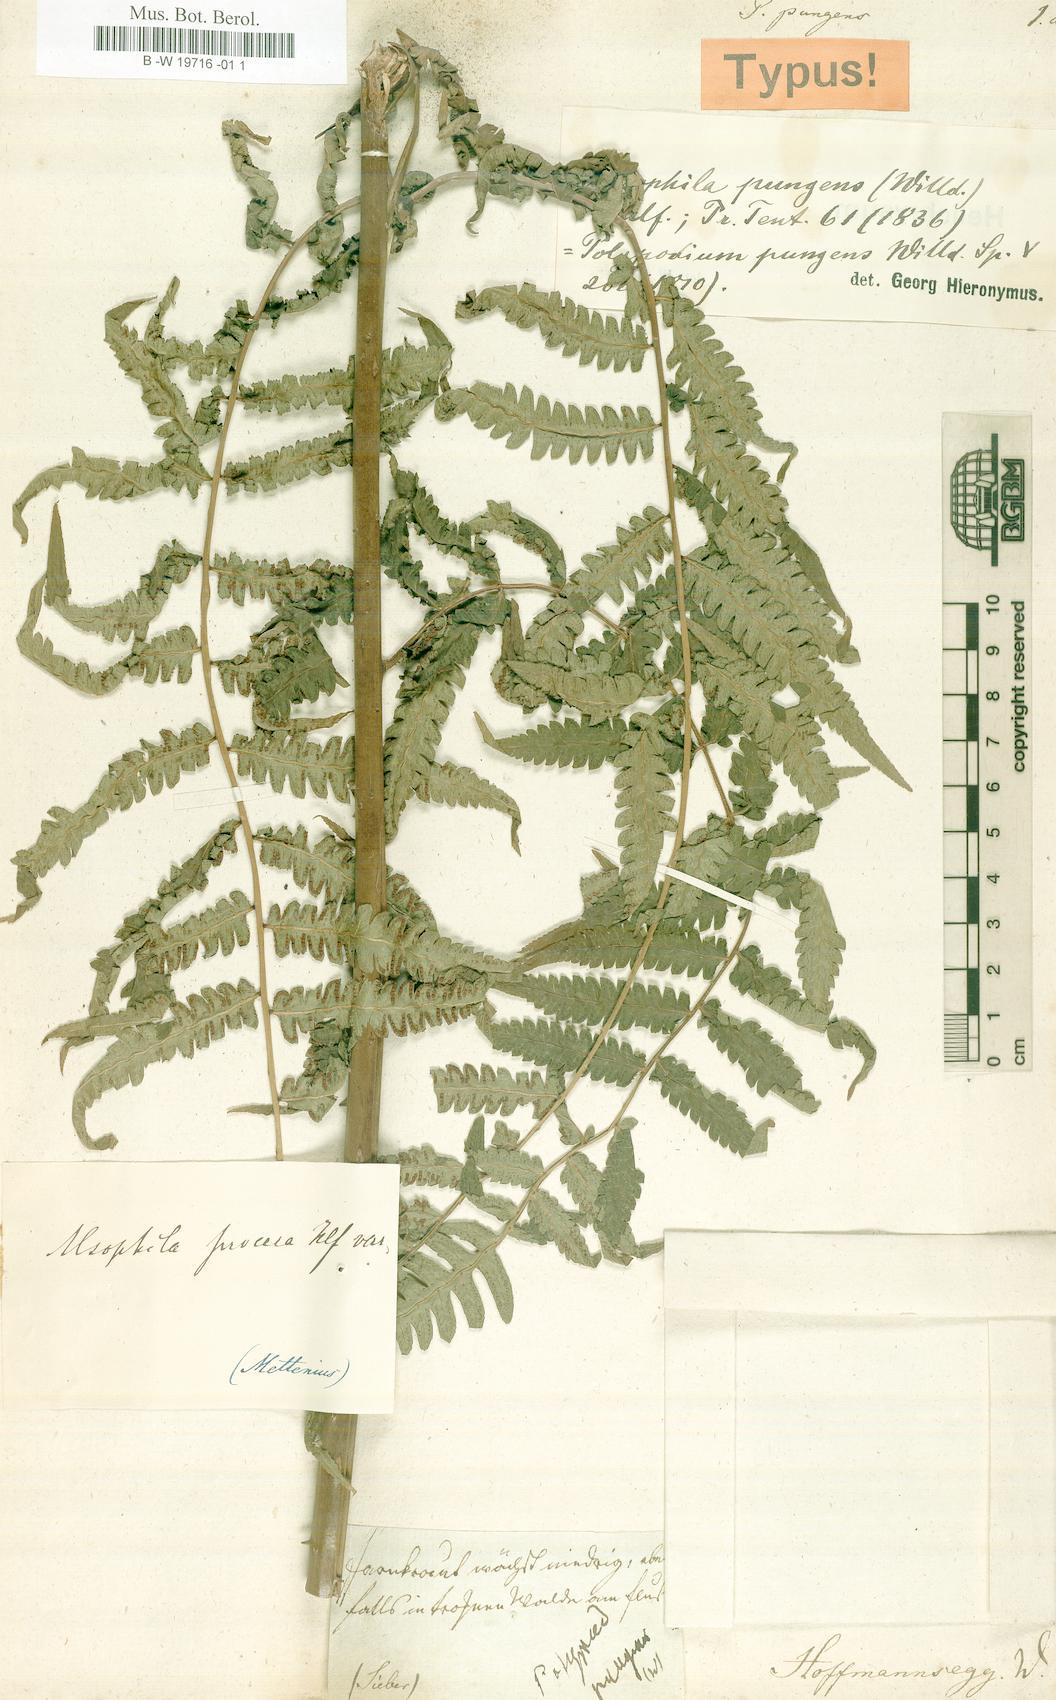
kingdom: Plantae
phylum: Tracheophyta
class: Polypodiopsida
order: Cyatheales
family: Cyatheaceae
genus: Cyathea
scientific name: Cyathea pungens
